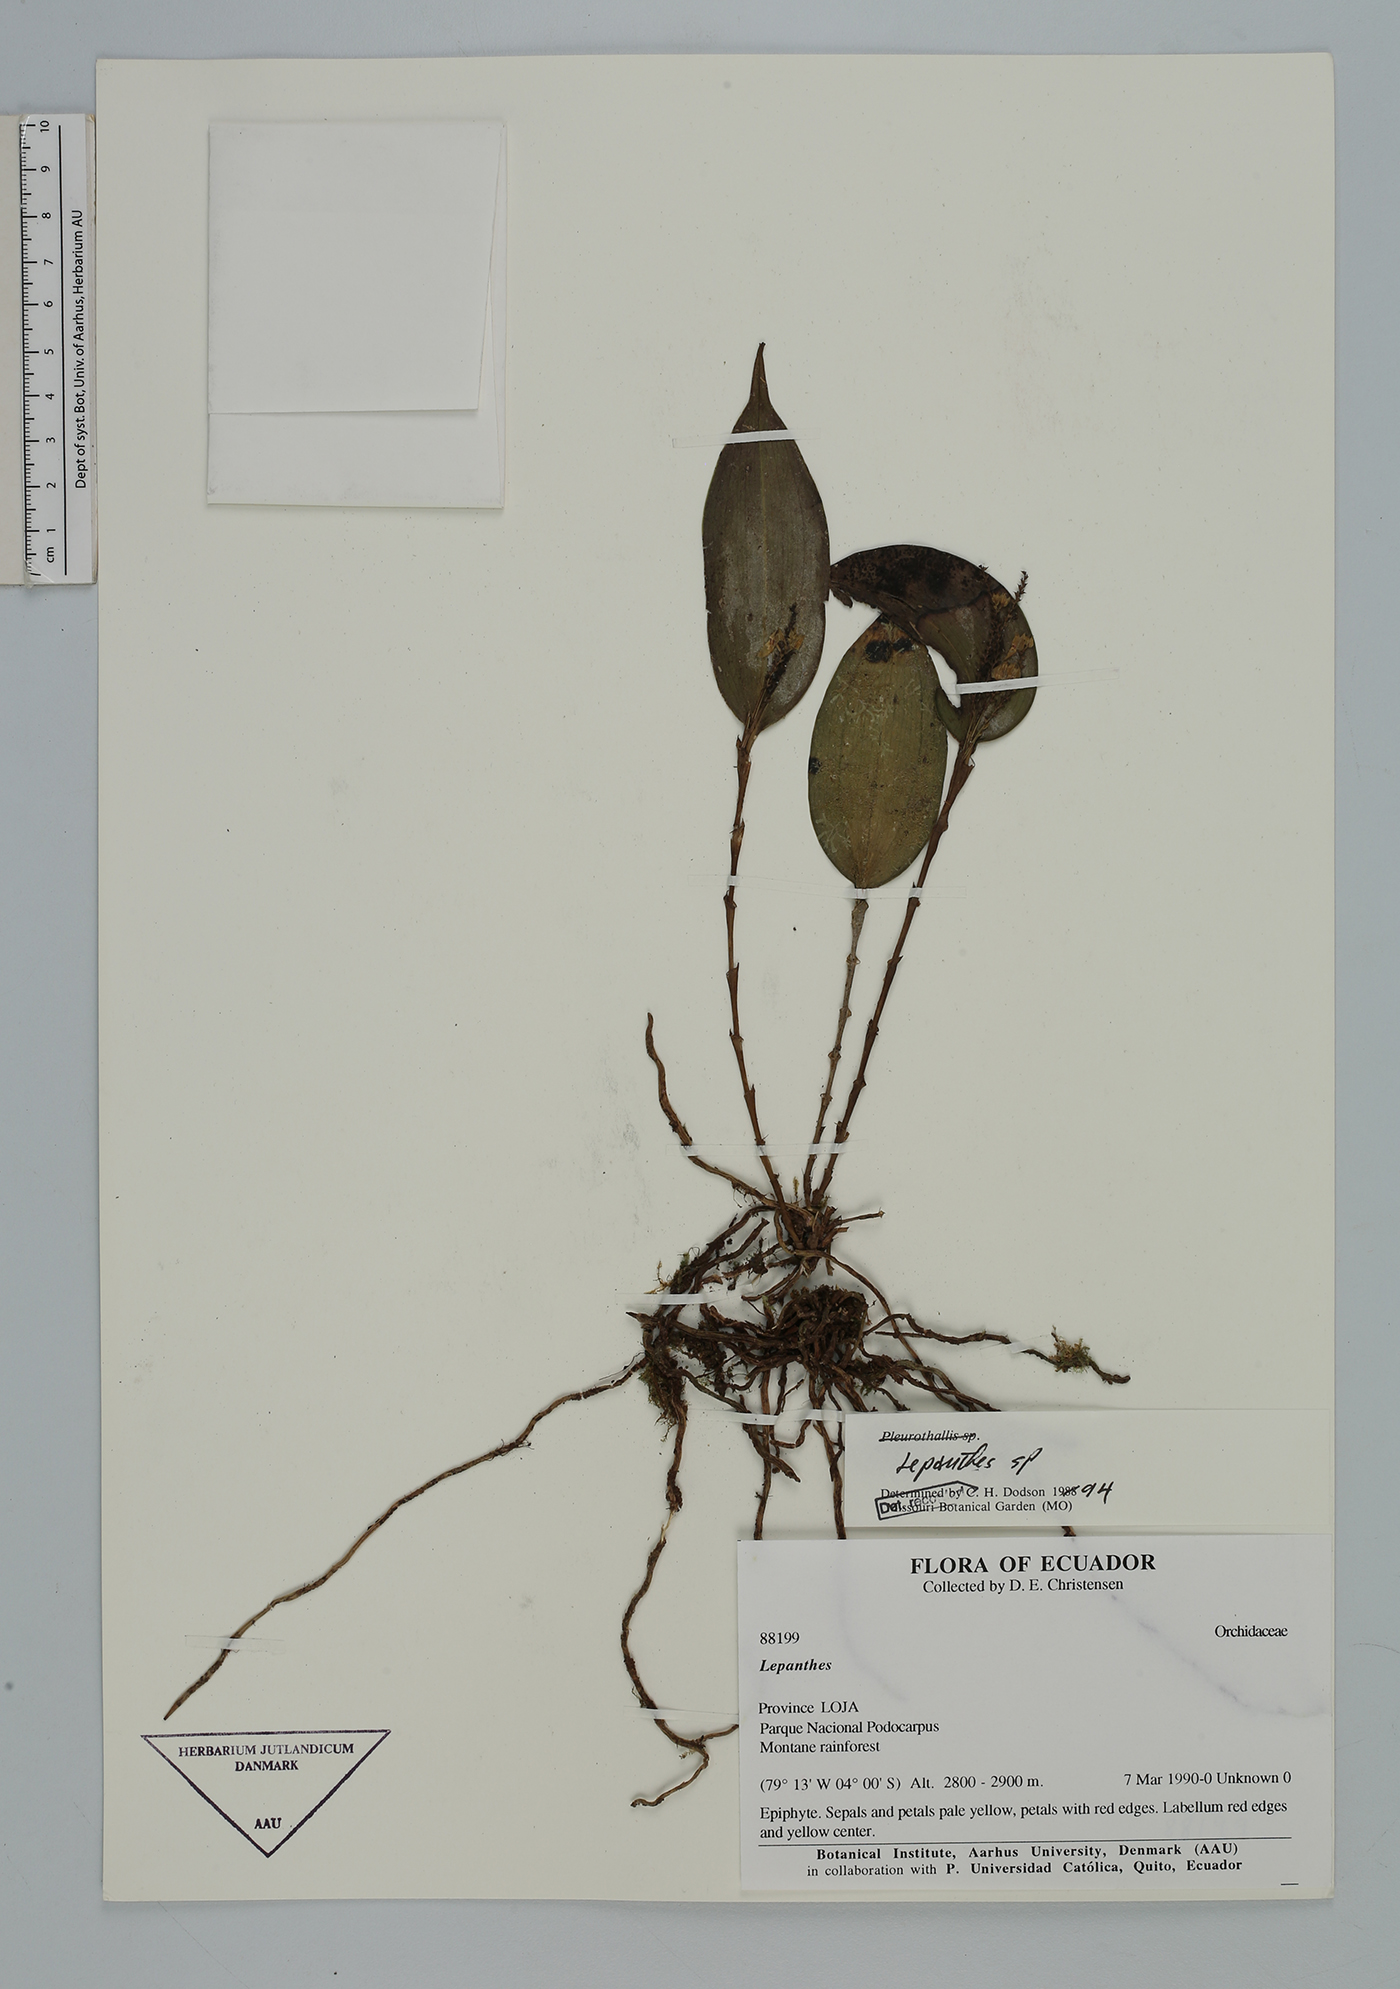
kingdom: Plantae
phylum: Tracheophyta
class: Liliopsida
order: Asparagales
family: Orchidaceae
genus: Lepanthes
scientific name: Lepanthes
